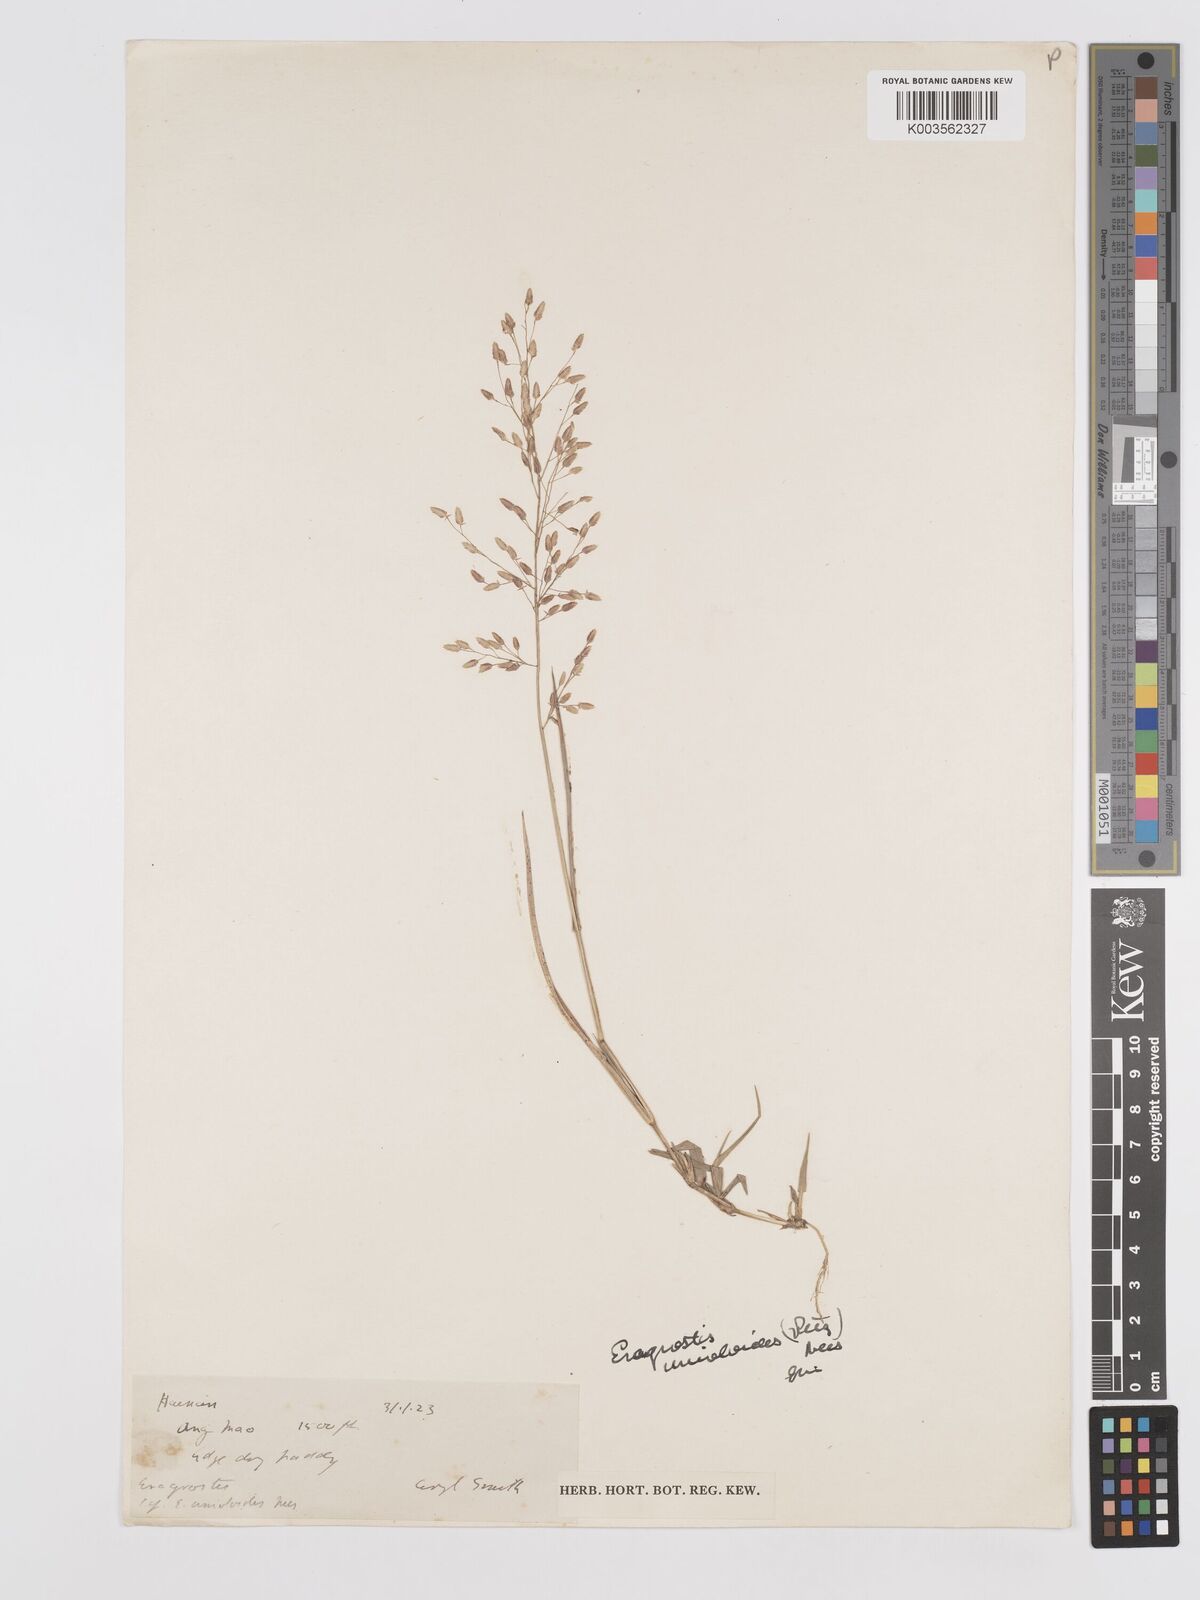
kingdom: Plantae
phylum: Tracheophyta
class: Liliopsida
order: Poales
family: Poaceae
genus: Eragrostis
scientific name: Eragrostis unioloides
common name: Chinese lovegrass
